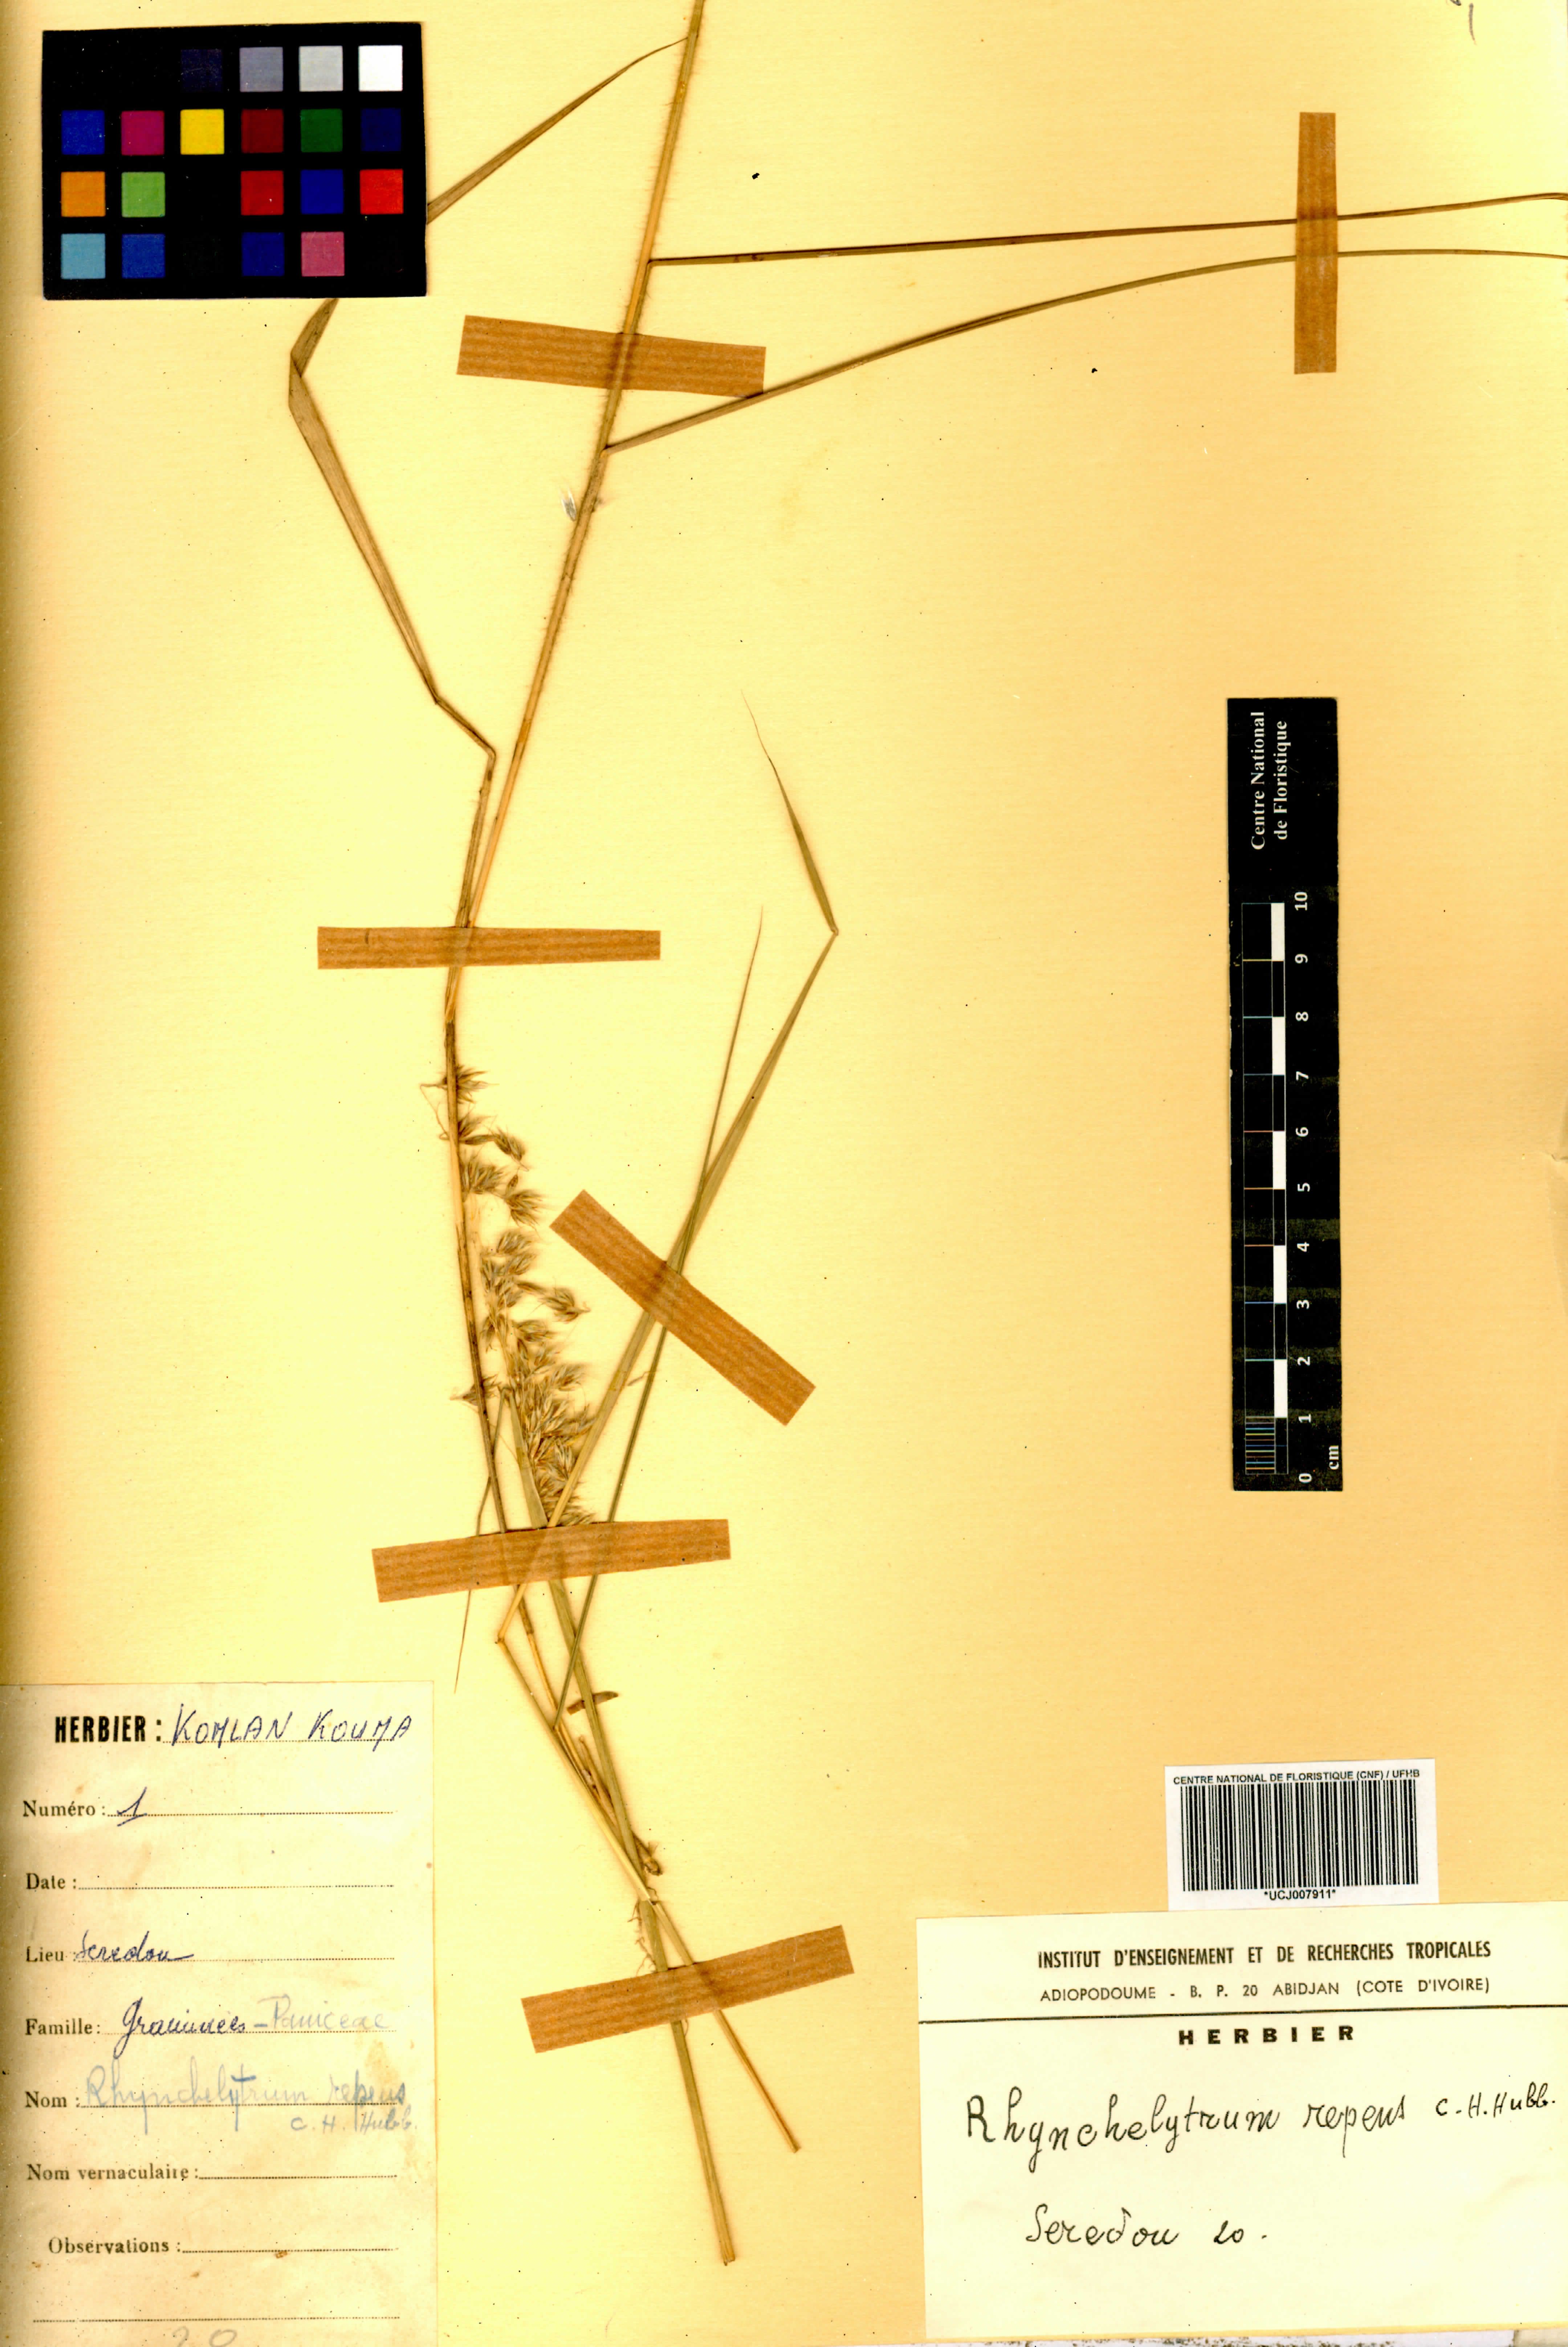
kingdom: Plantae
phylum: Tracheophyta
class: Liliopsida
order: Poales
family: Poaceae
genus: Melinis
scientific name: Melinis repens
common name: Rose natal grass
